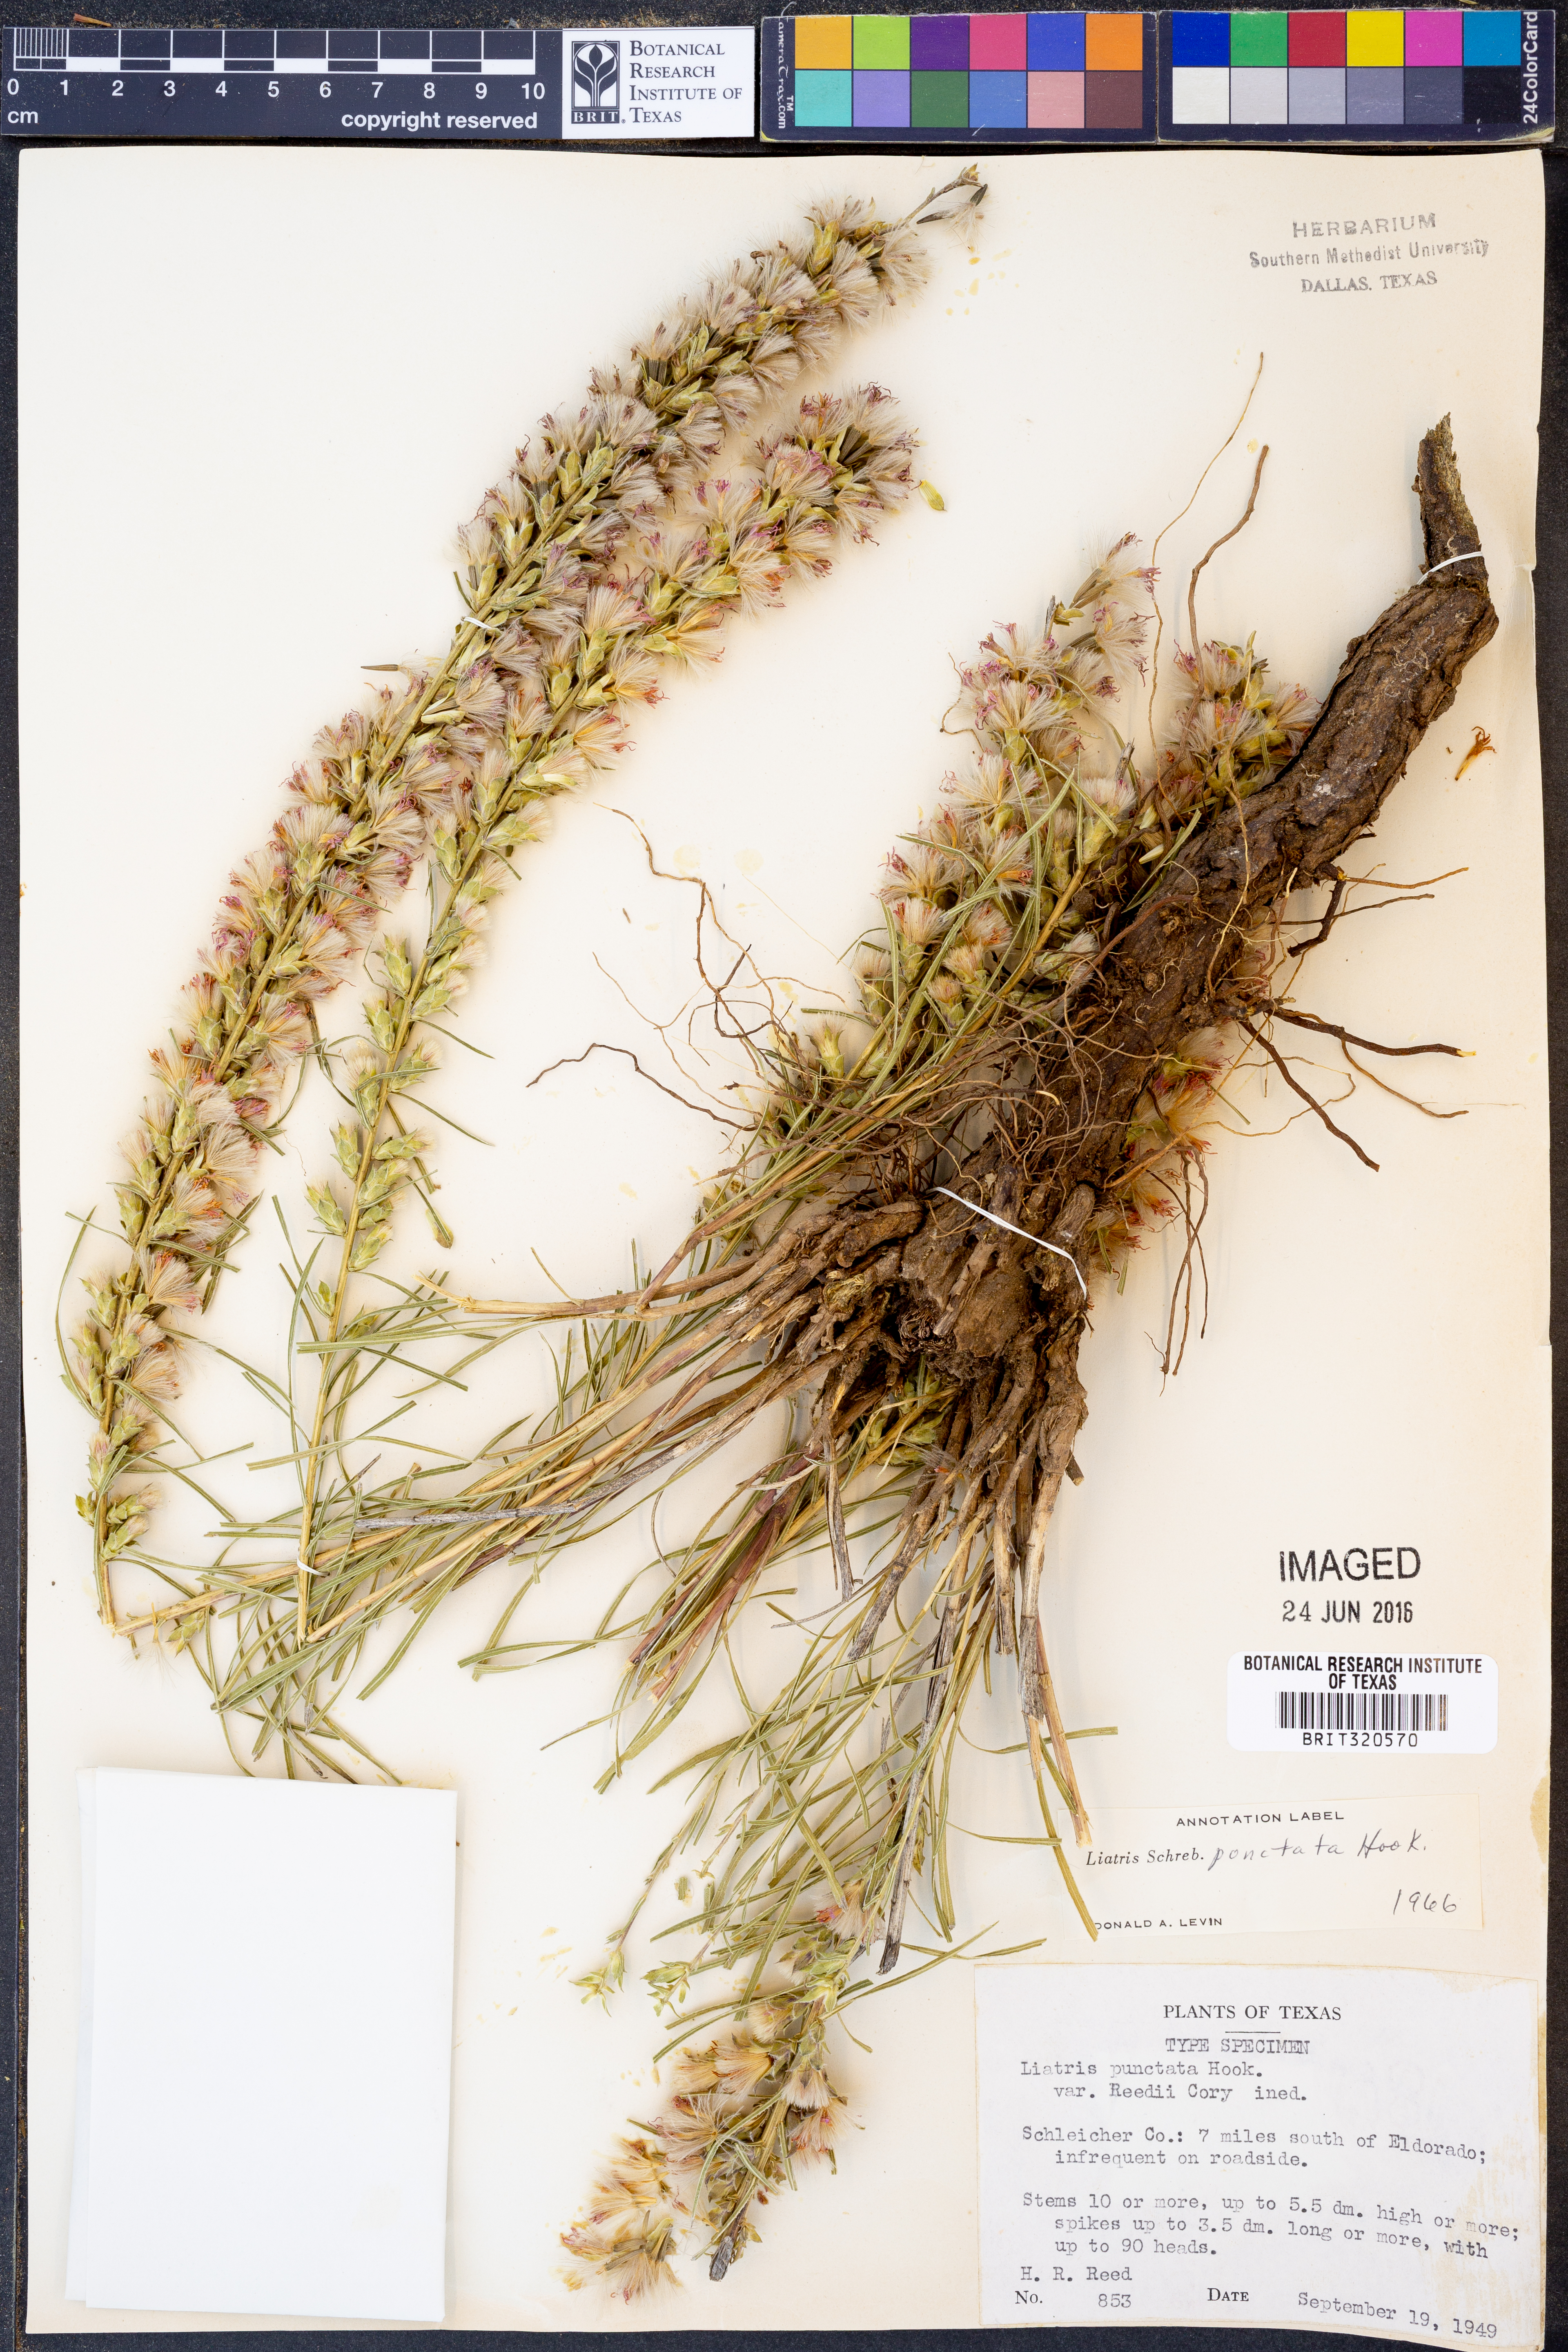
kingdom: Plantae
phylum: Tracheophyta
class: Magnoliopsida
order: Asterales
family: Asteraceae
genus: Liatris
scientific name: Liatris punctata
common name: Dotted gayfeather
